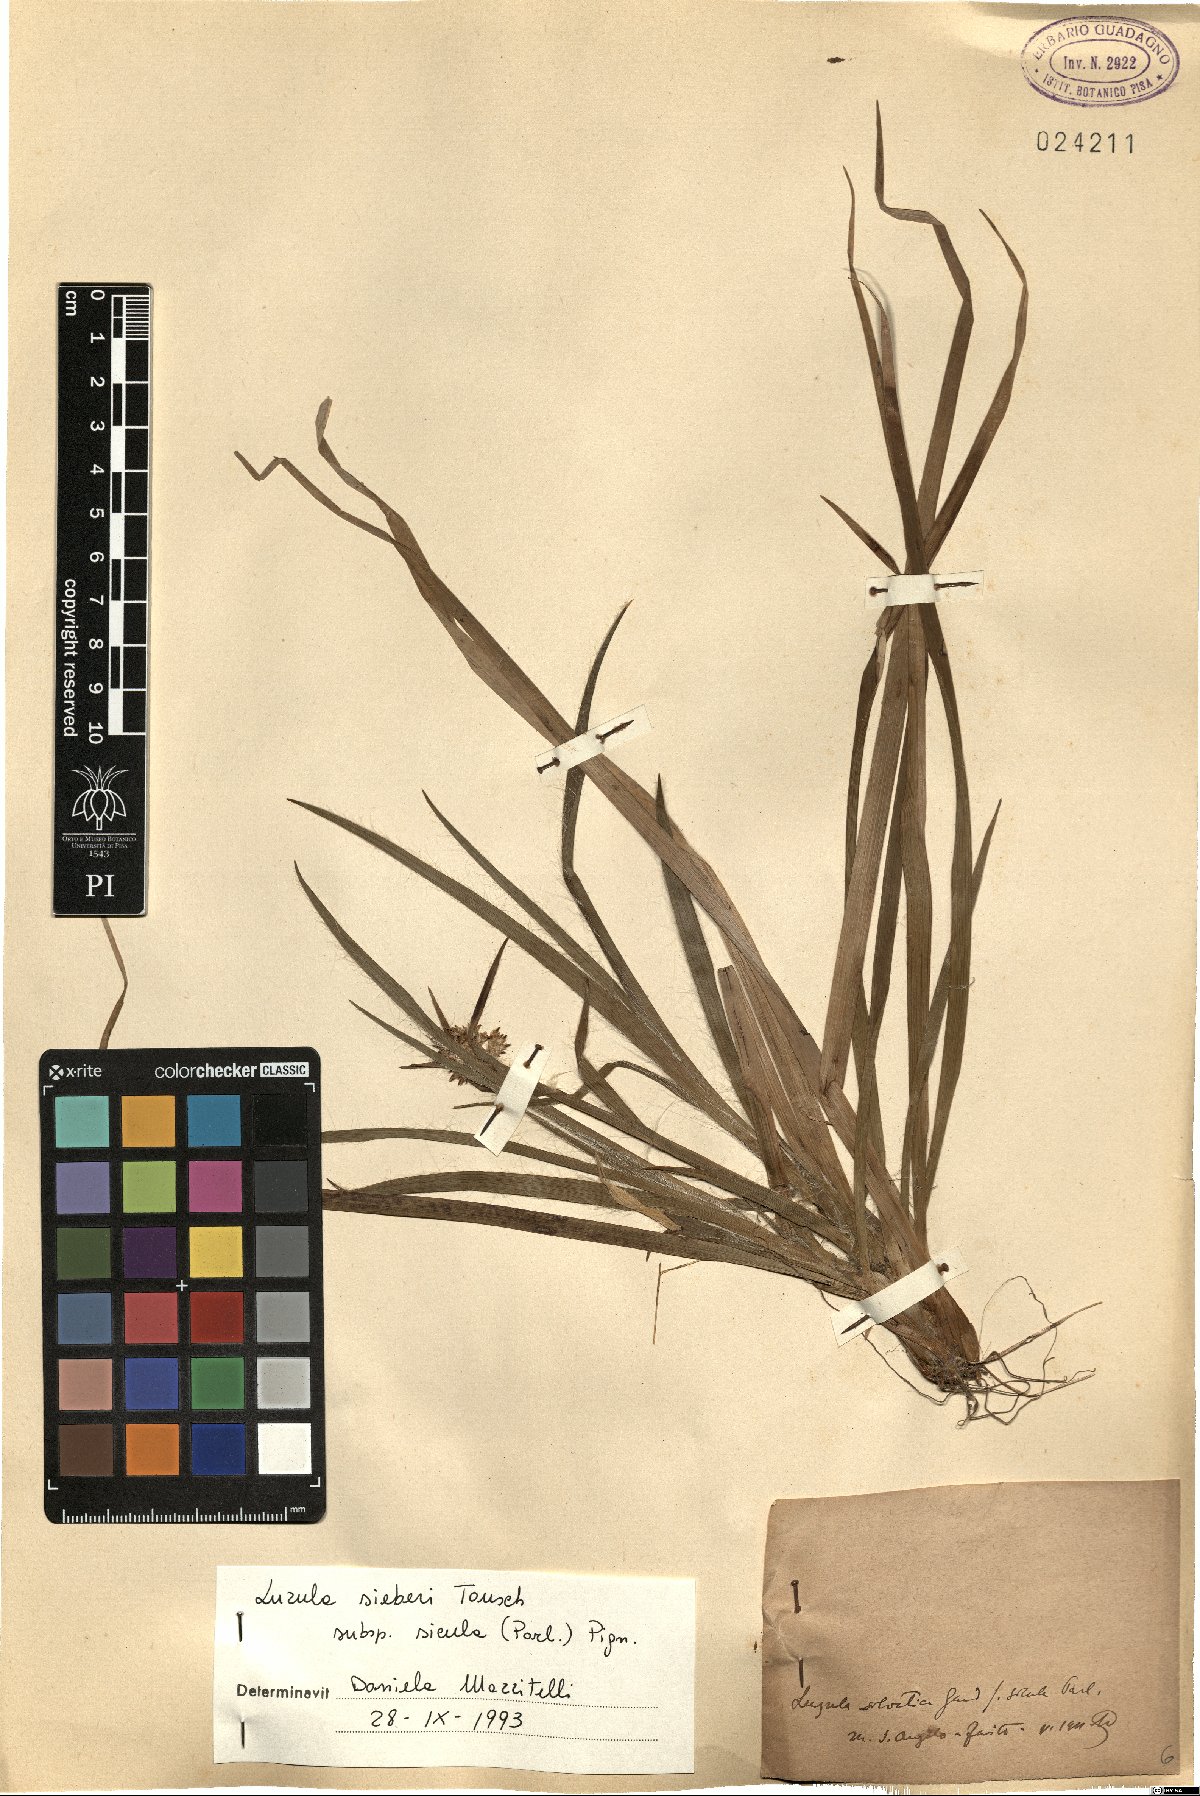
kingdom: Plantae
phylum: Tracheophyta
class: Liliopsida
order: Poales
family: Juncaceae
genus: Luzula
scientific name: Luzula sylvatica
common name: Great wood-rush
